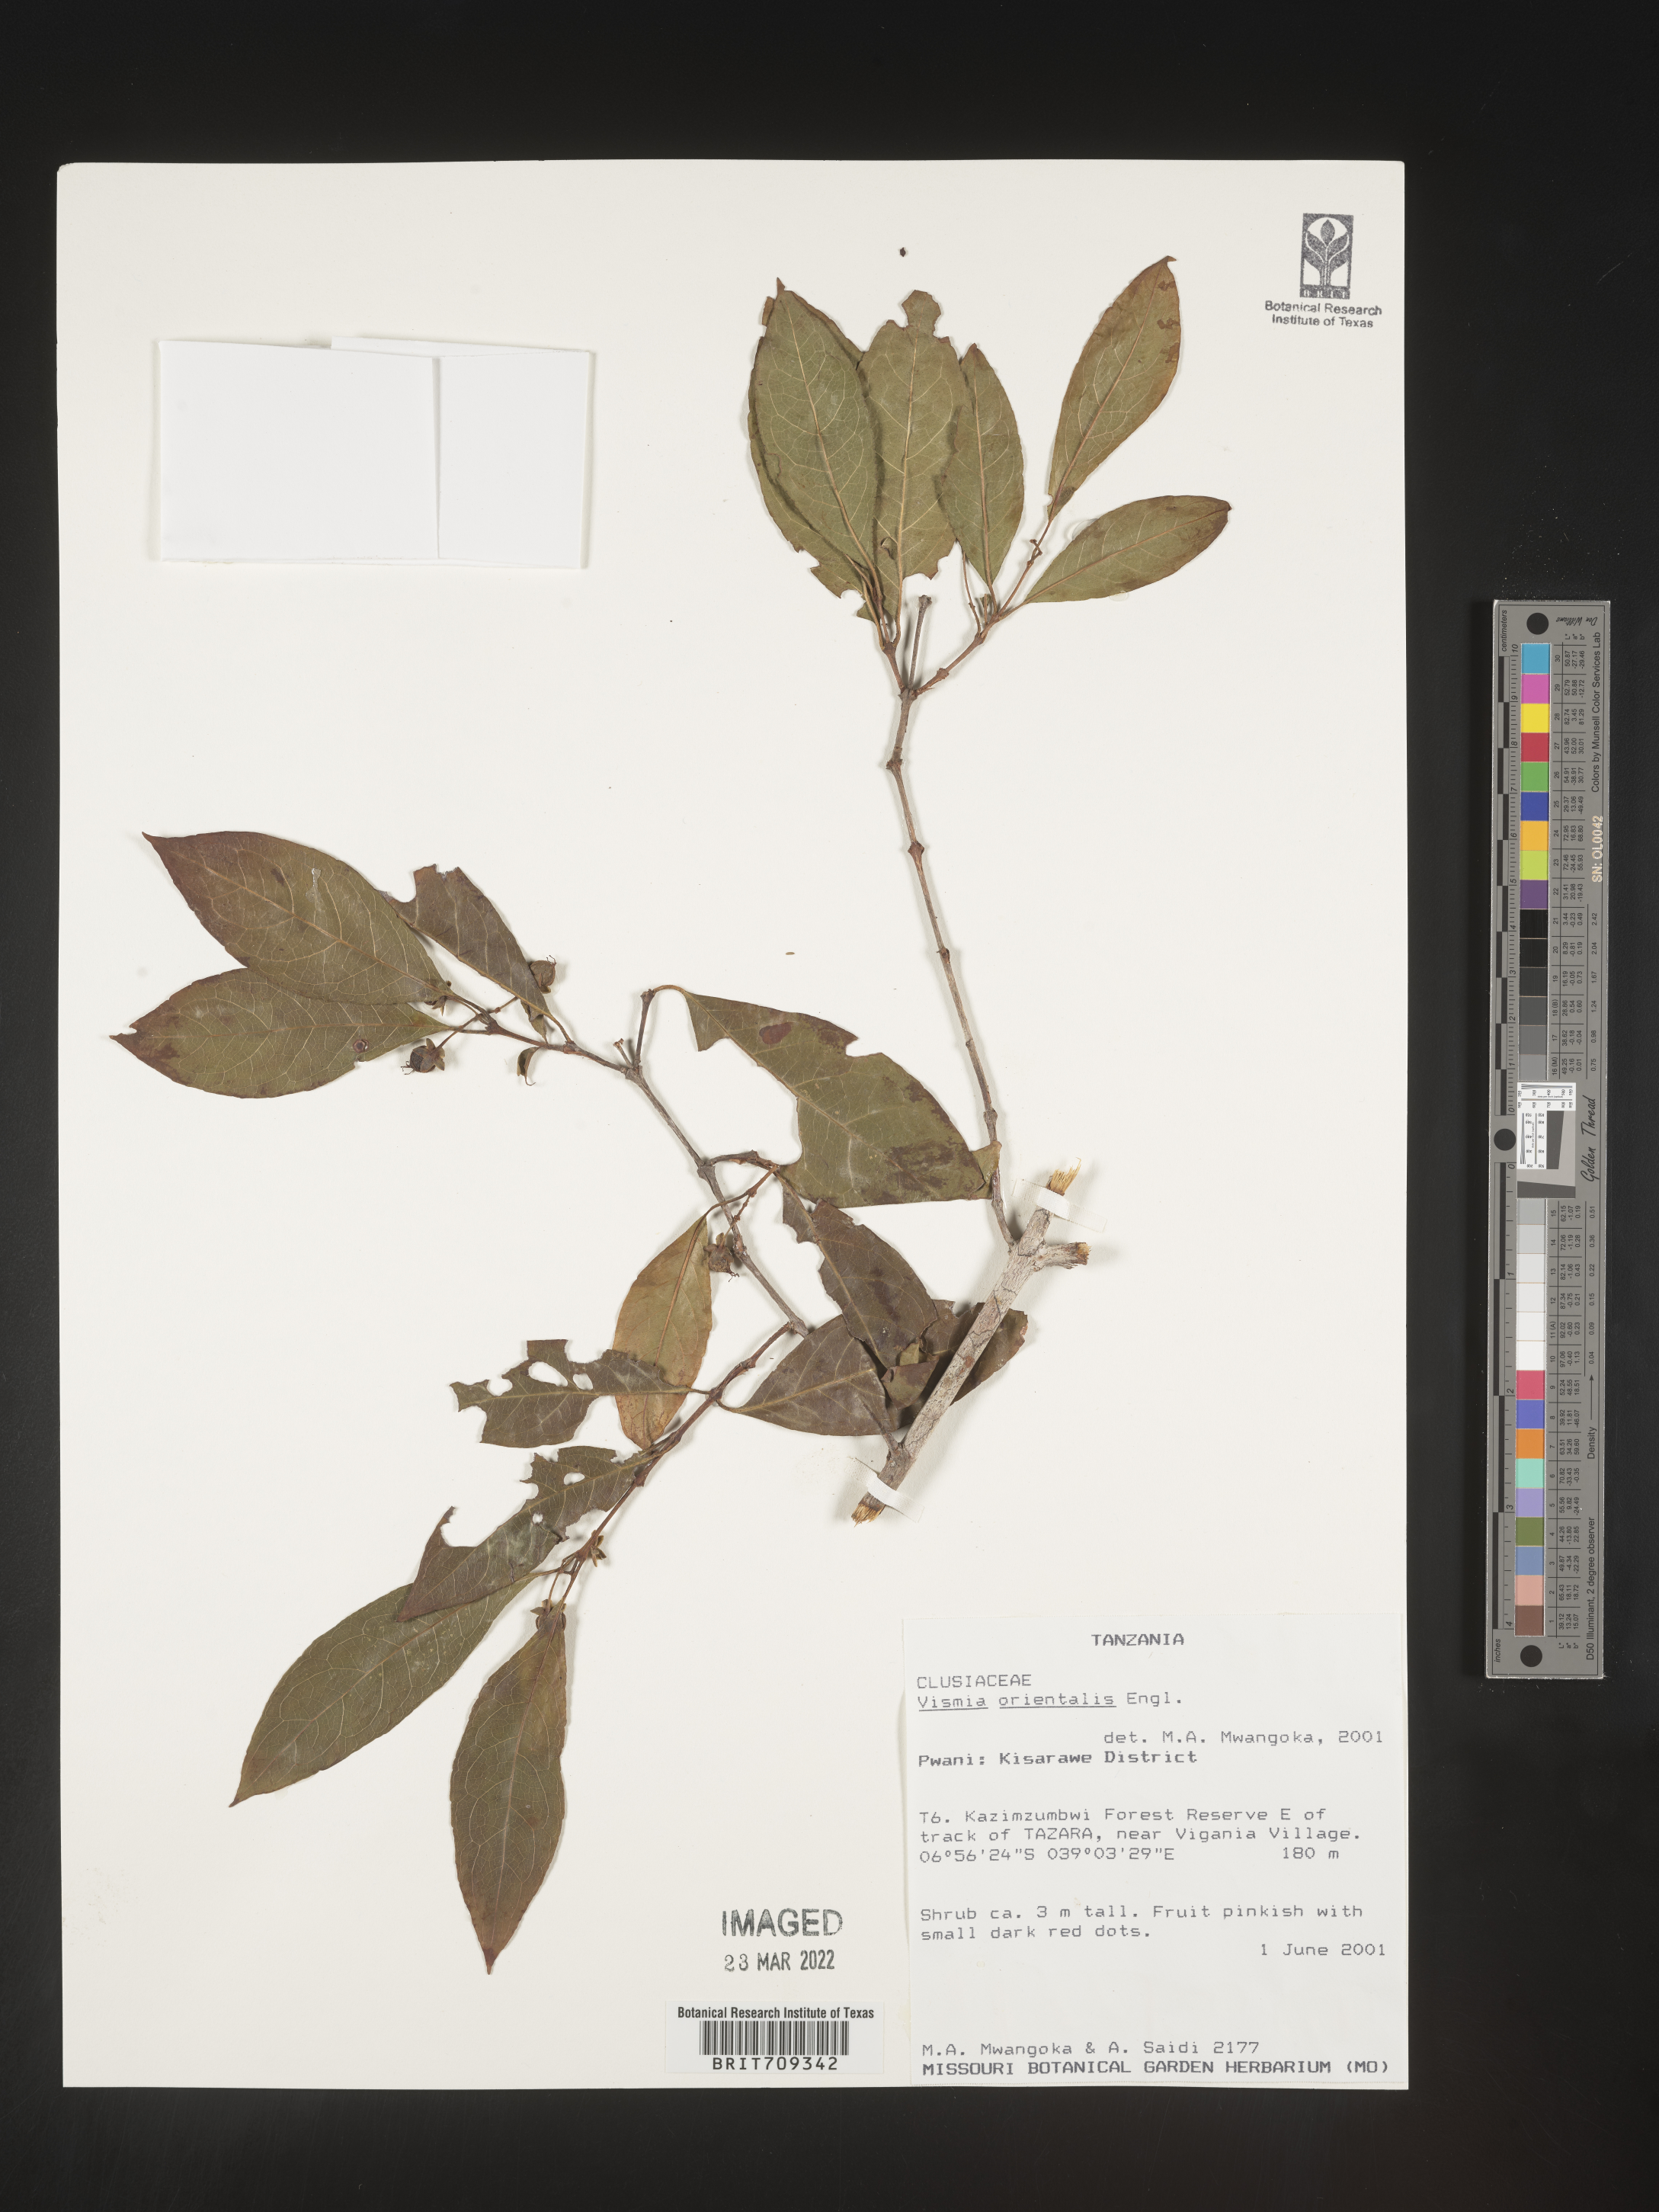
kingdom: Plantae
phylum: Tracheophyta
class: Magnoliopsida
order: Malpighiales
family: Hypericaceae
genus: Vismia
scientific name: Vismia
